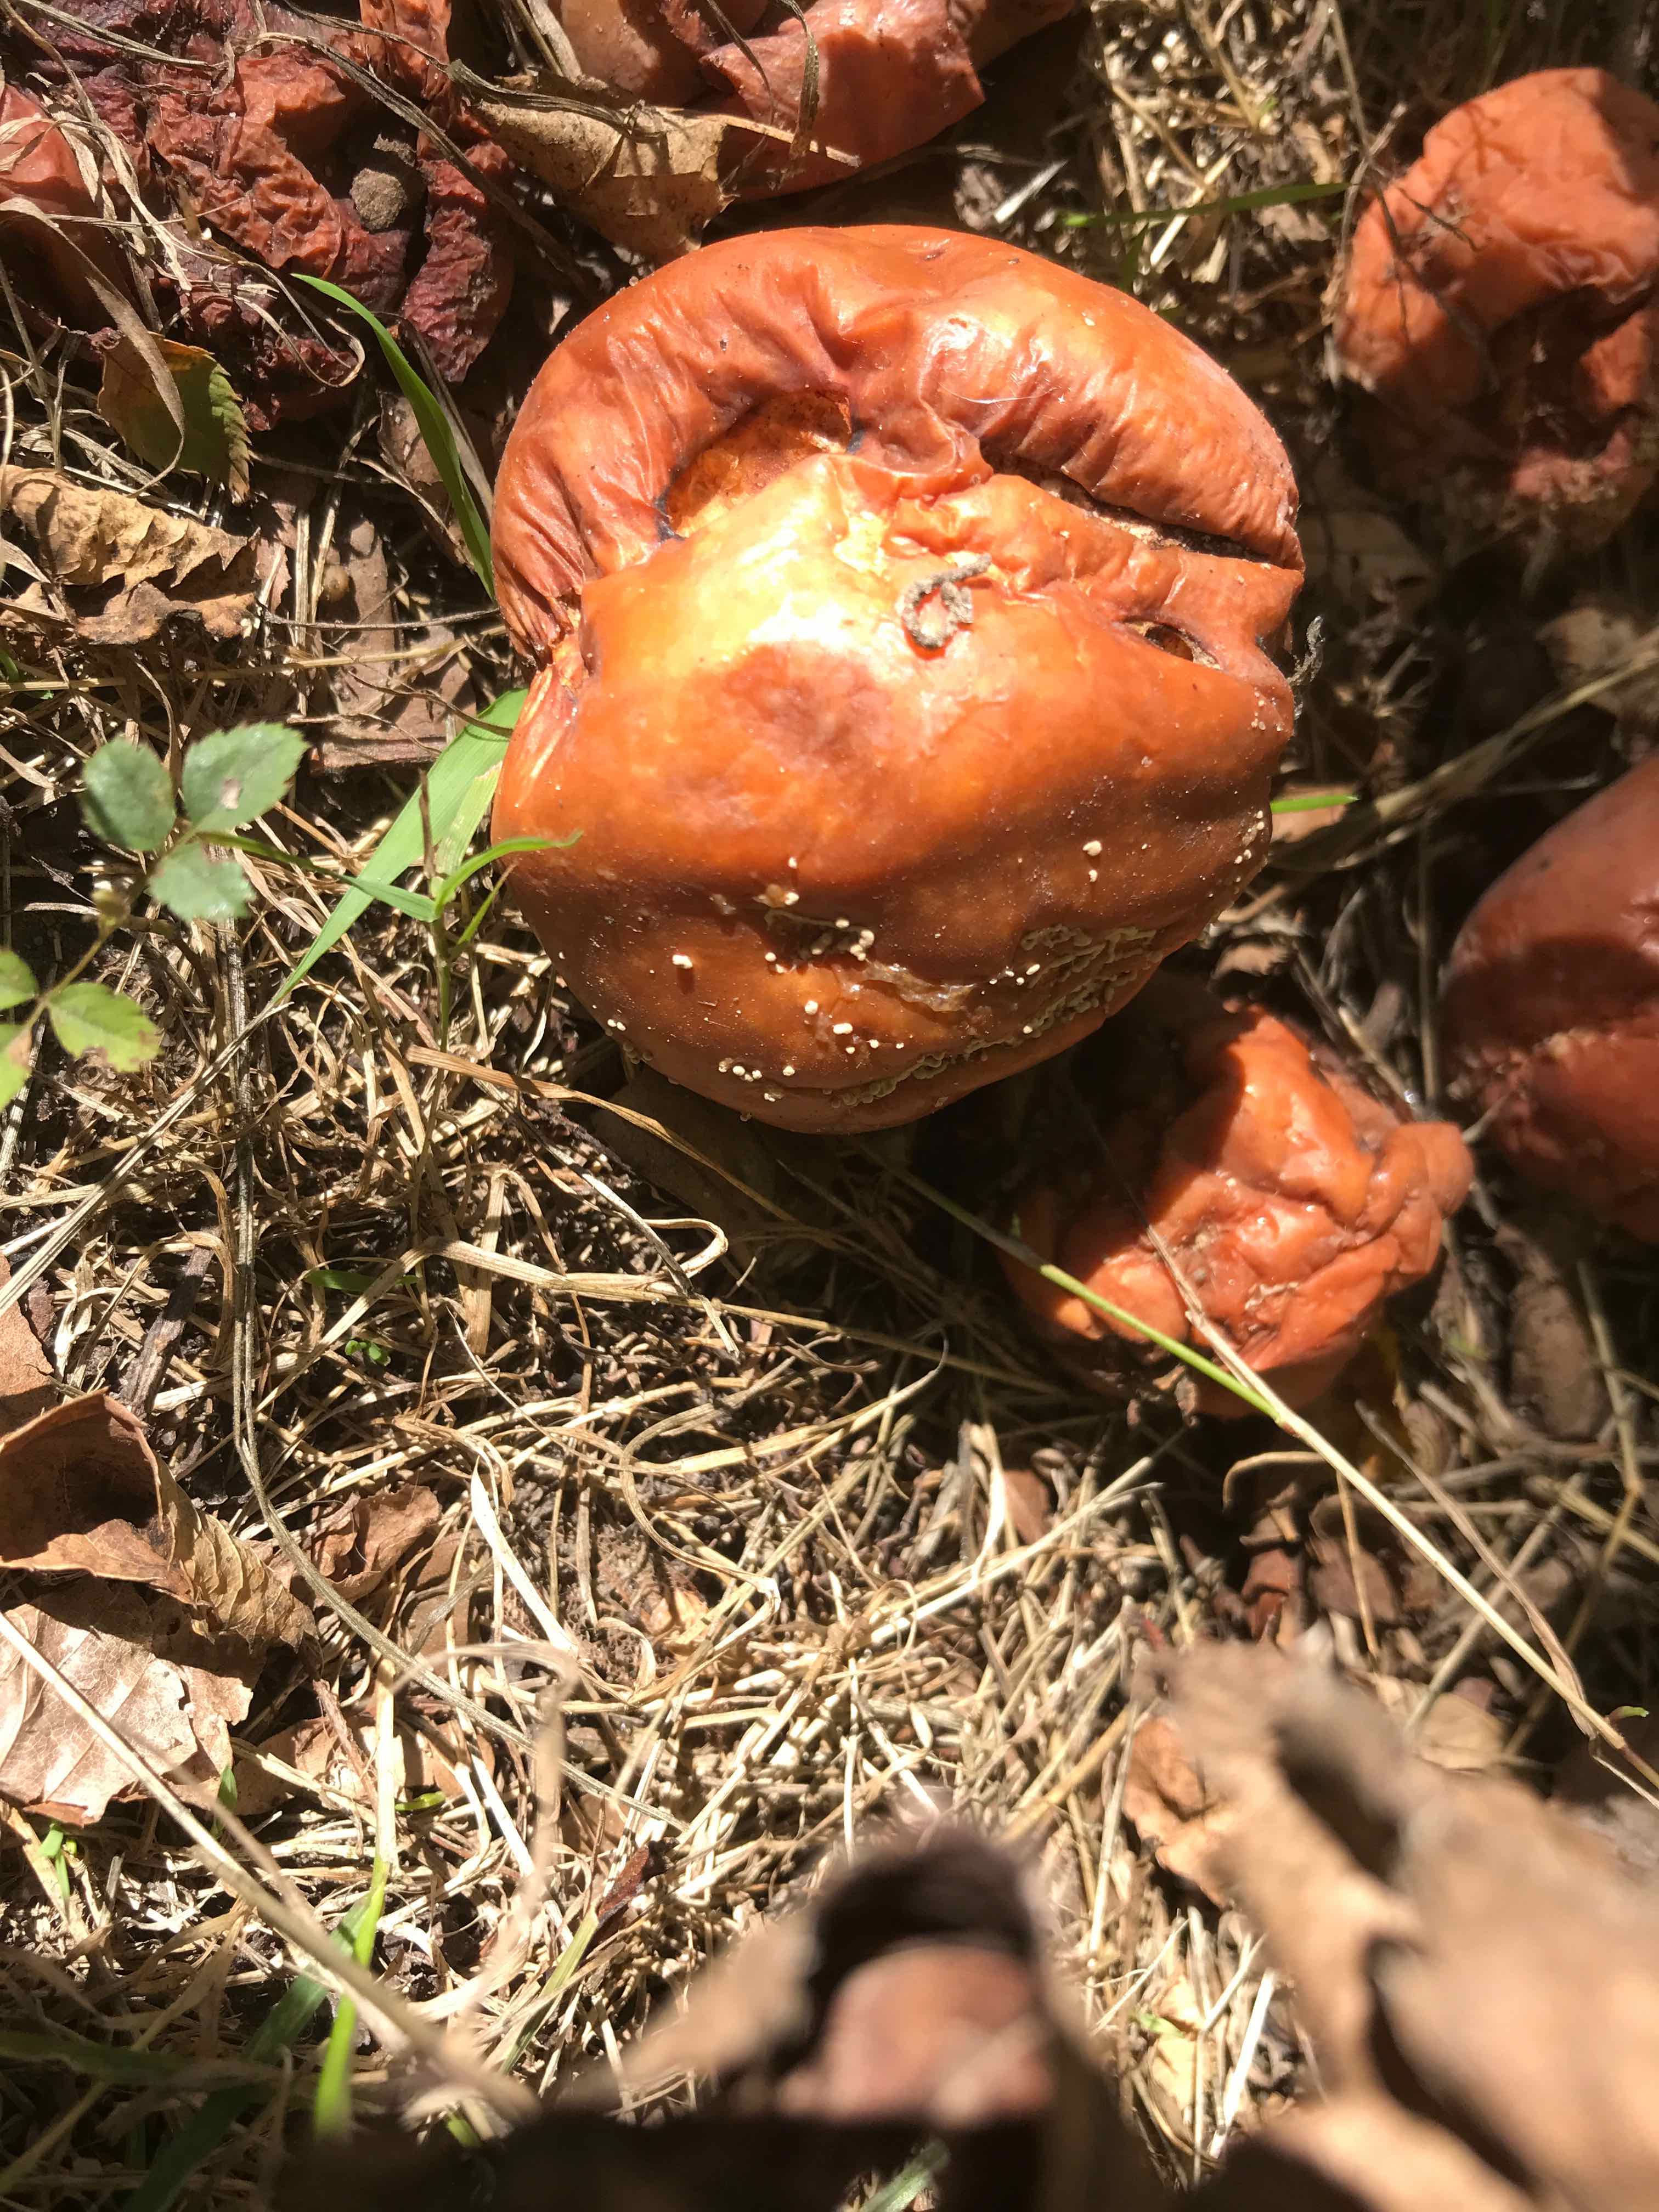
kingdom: Fungi
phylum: Ascomycota
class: Leotiomycetes
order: Helotiales
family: Sclerotiniaceae
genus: Monilinia
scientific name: Monilinia fructigena
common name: æble-knoldskive
